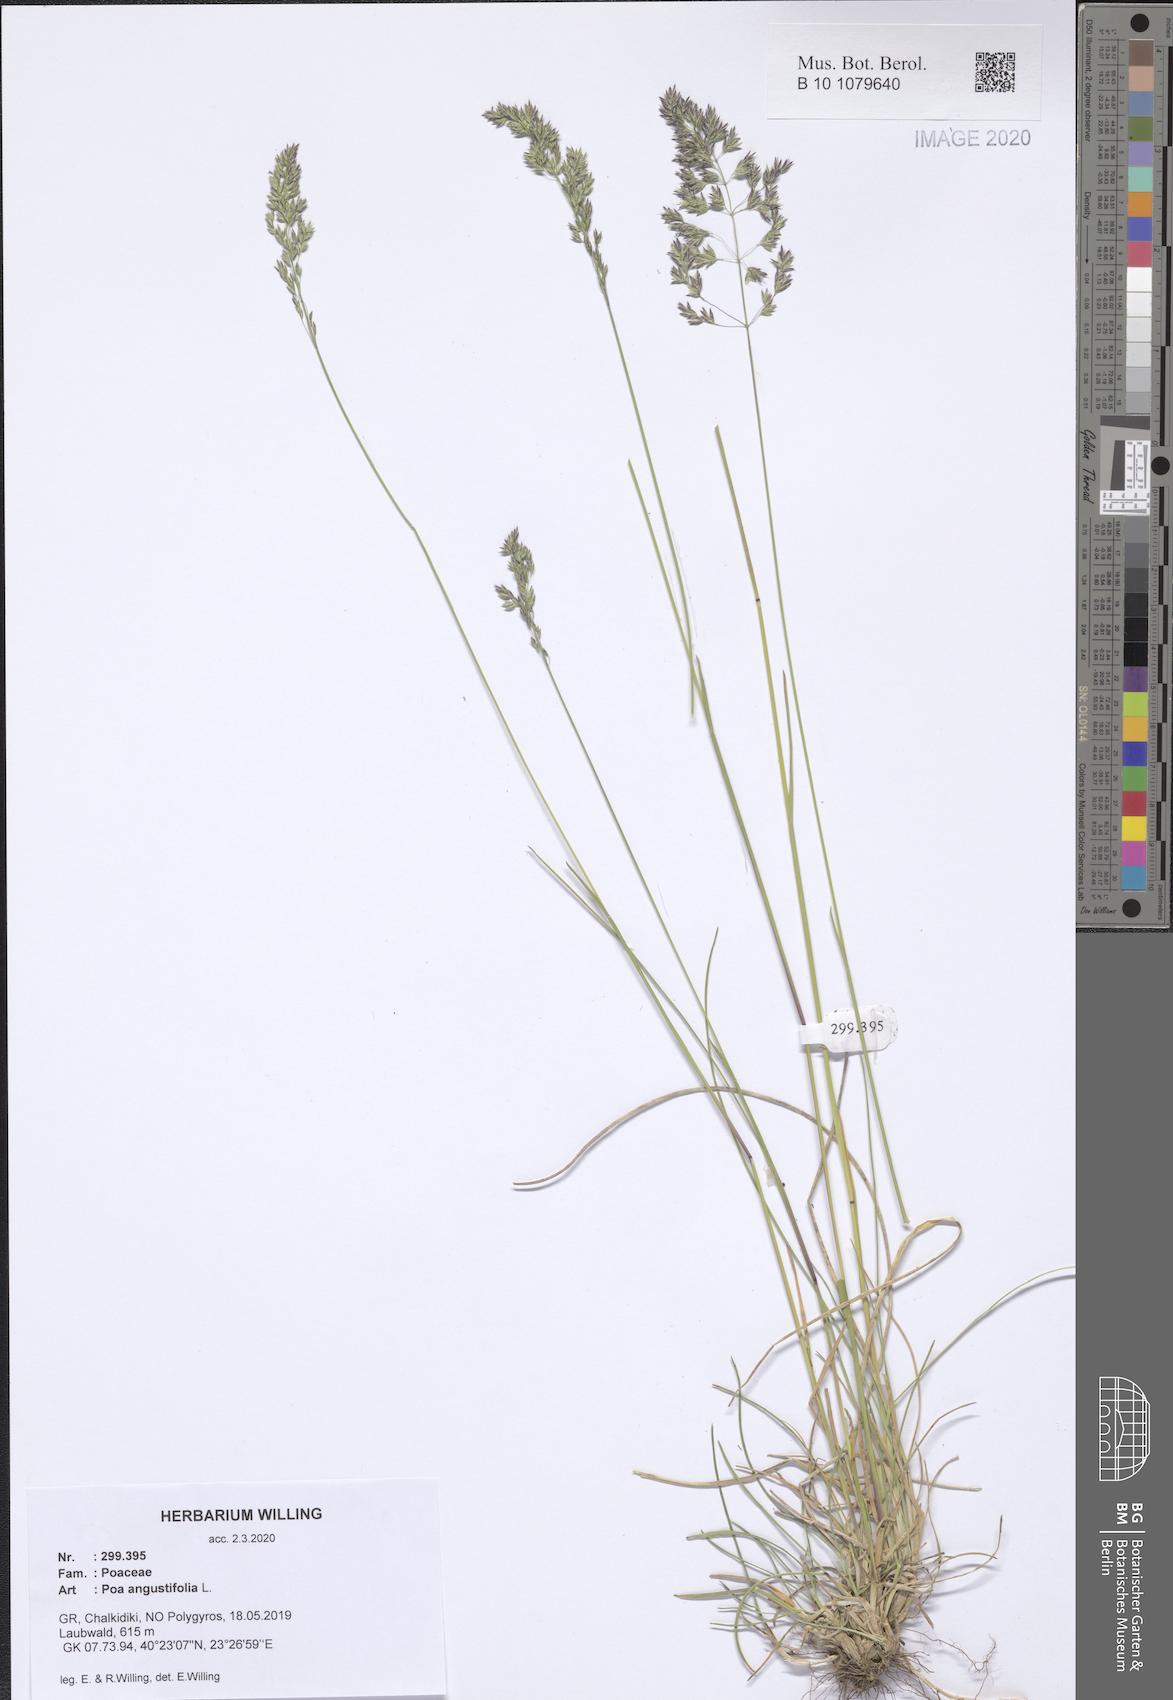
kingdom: Plantae
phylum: Tracheophyta
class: Liliopsida
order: Poales
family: Poaceae
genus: Poa
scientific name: Poa angustifolia
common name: Narrow-leaved meadow-grass
